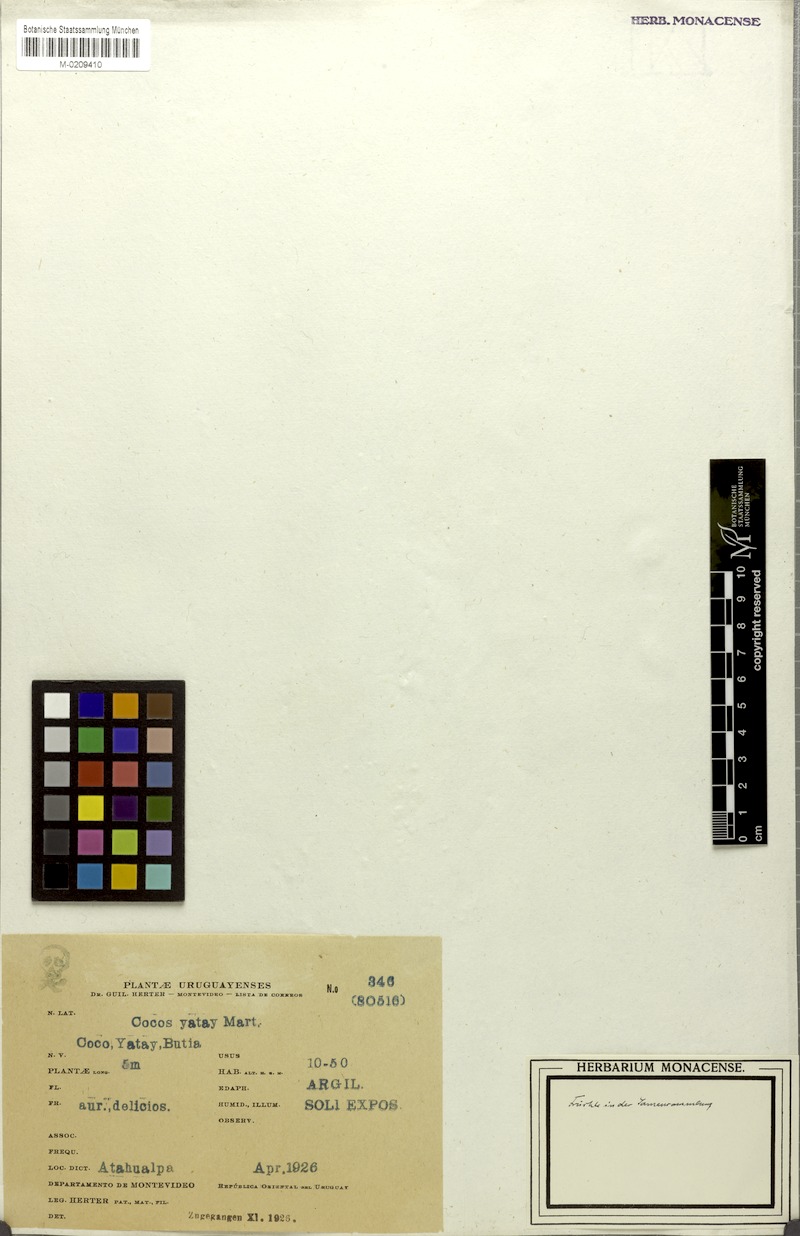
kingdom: Plantae
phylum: Tracheophyta
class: Liliopsida
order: Arecales
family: Arecaceae
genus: Butia
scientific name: Butia yatay
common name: Yatay palm
